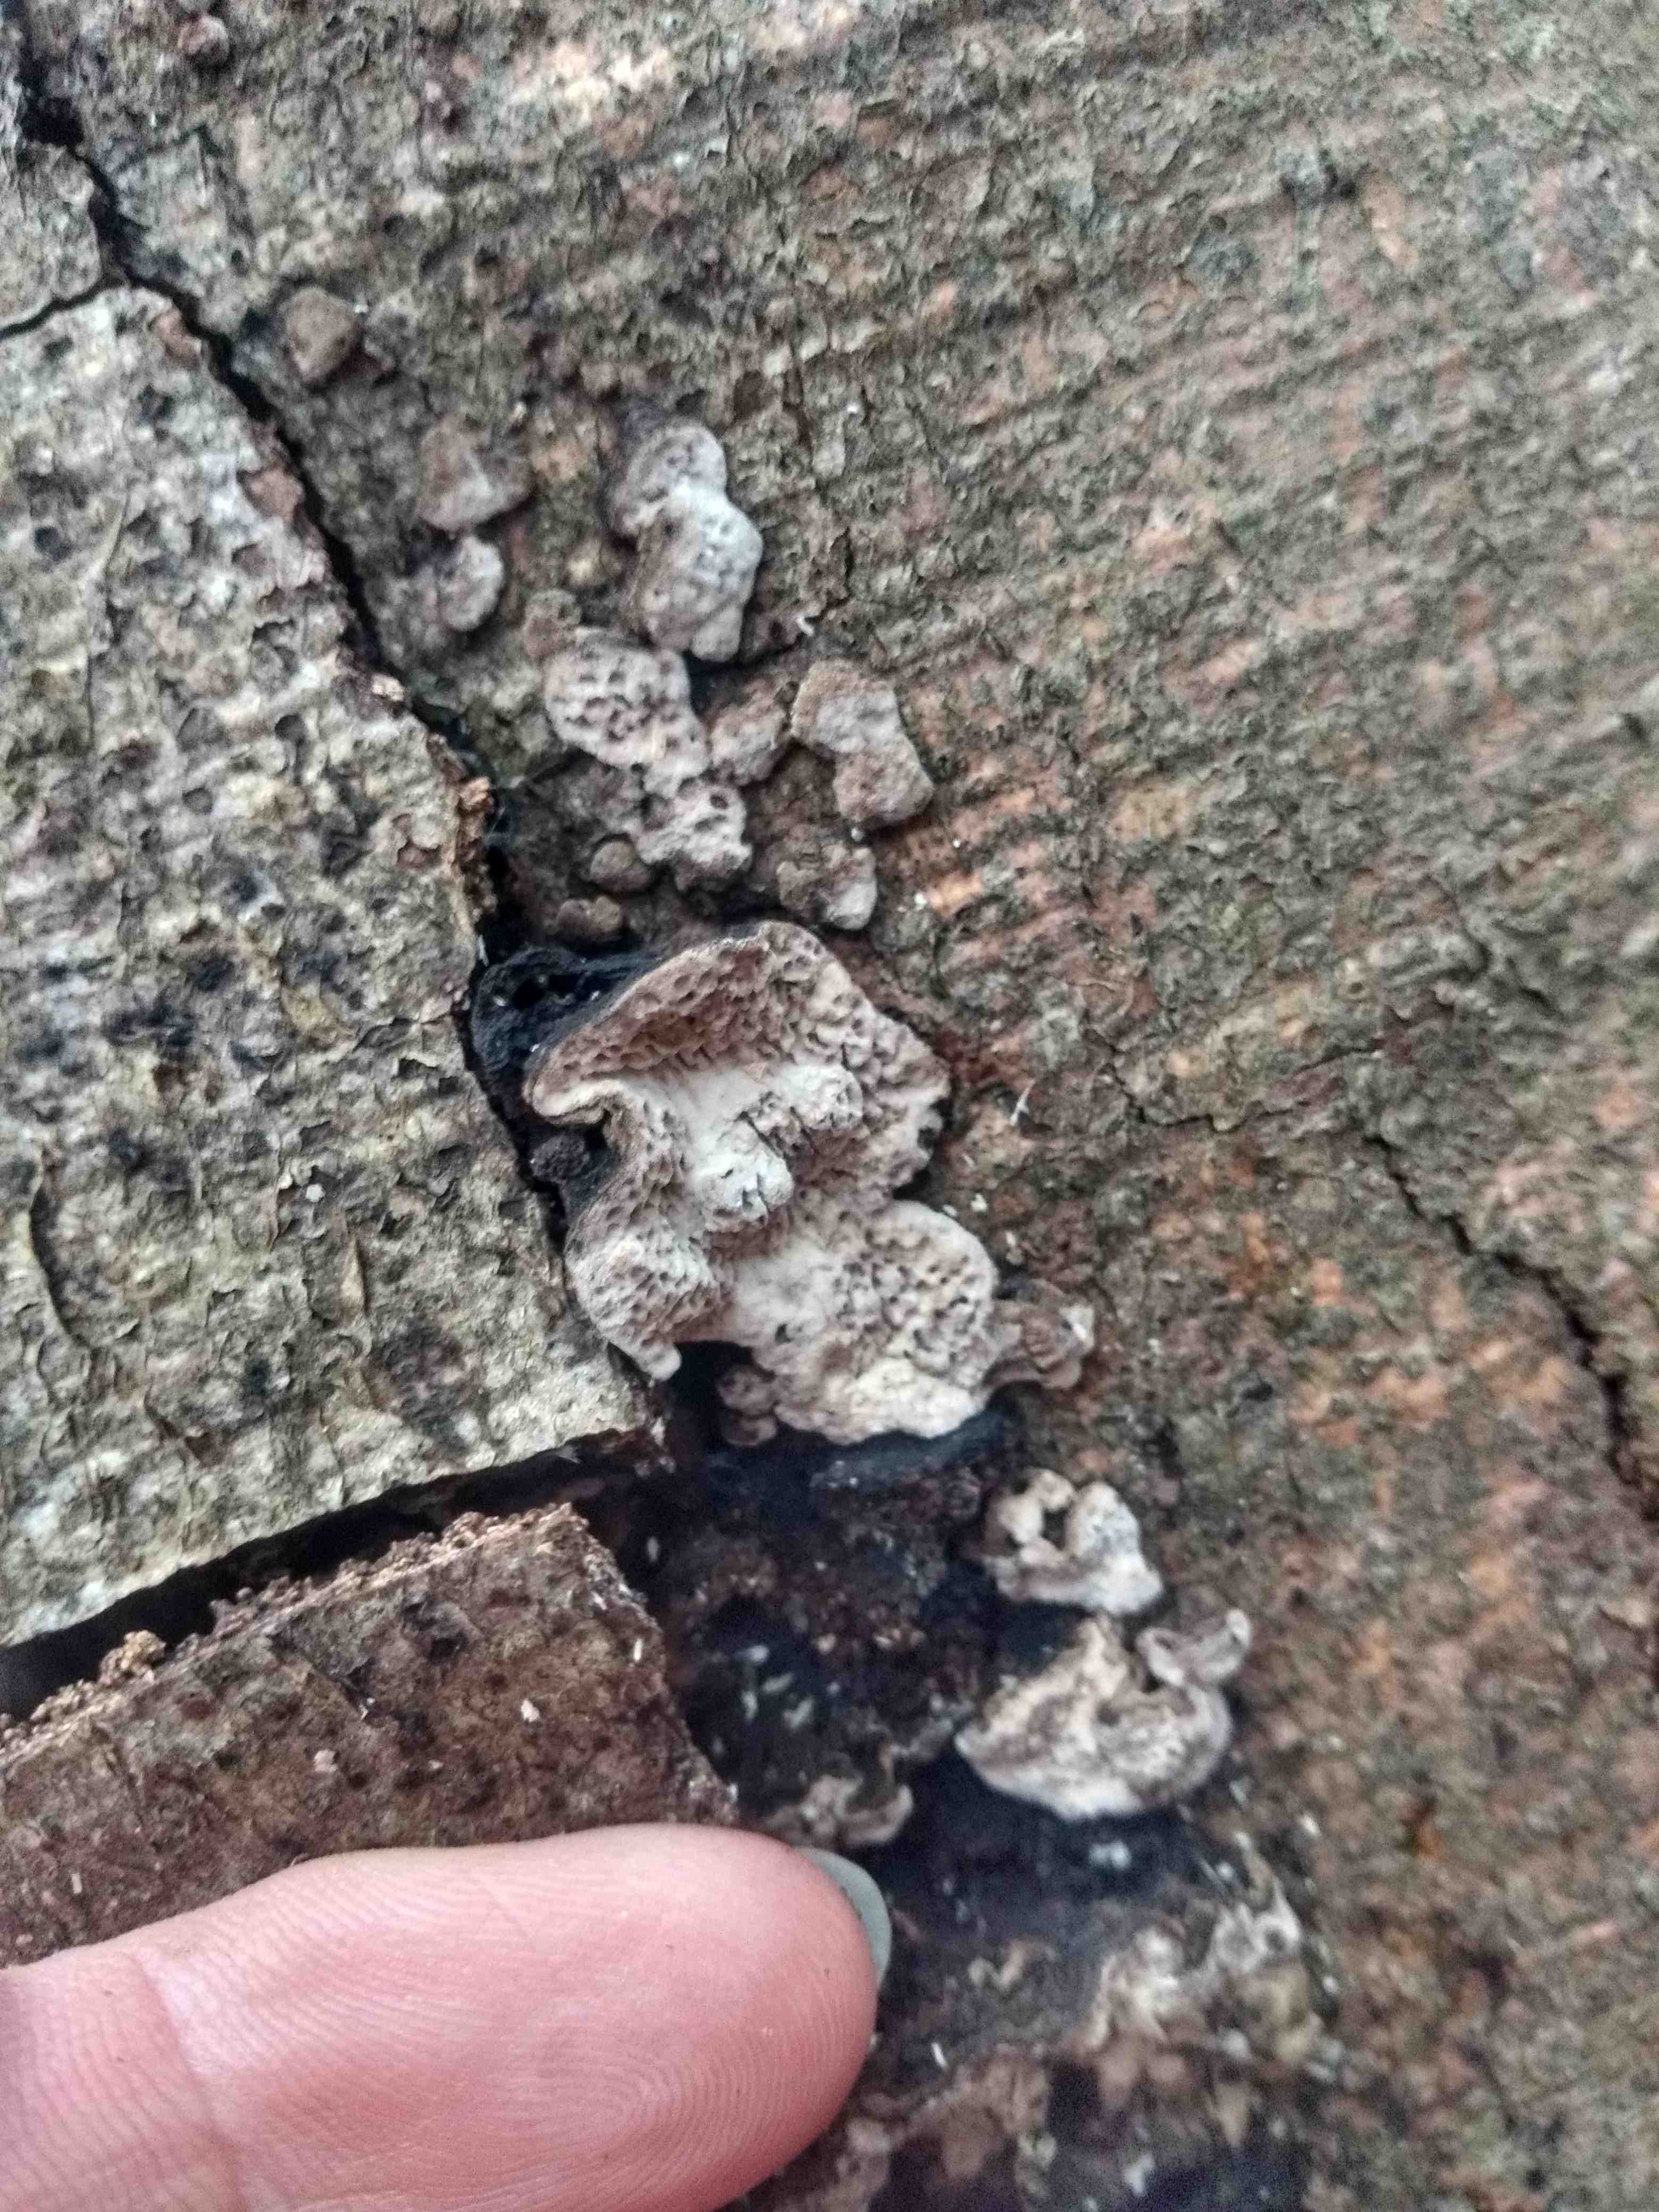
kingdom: Fungi
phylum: Basidiomycota
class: Agaricomycetes
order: Polyporales
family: Polyporaceae
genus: Podofomes
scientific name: Podofomes mollis
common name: blød begporesvamp
